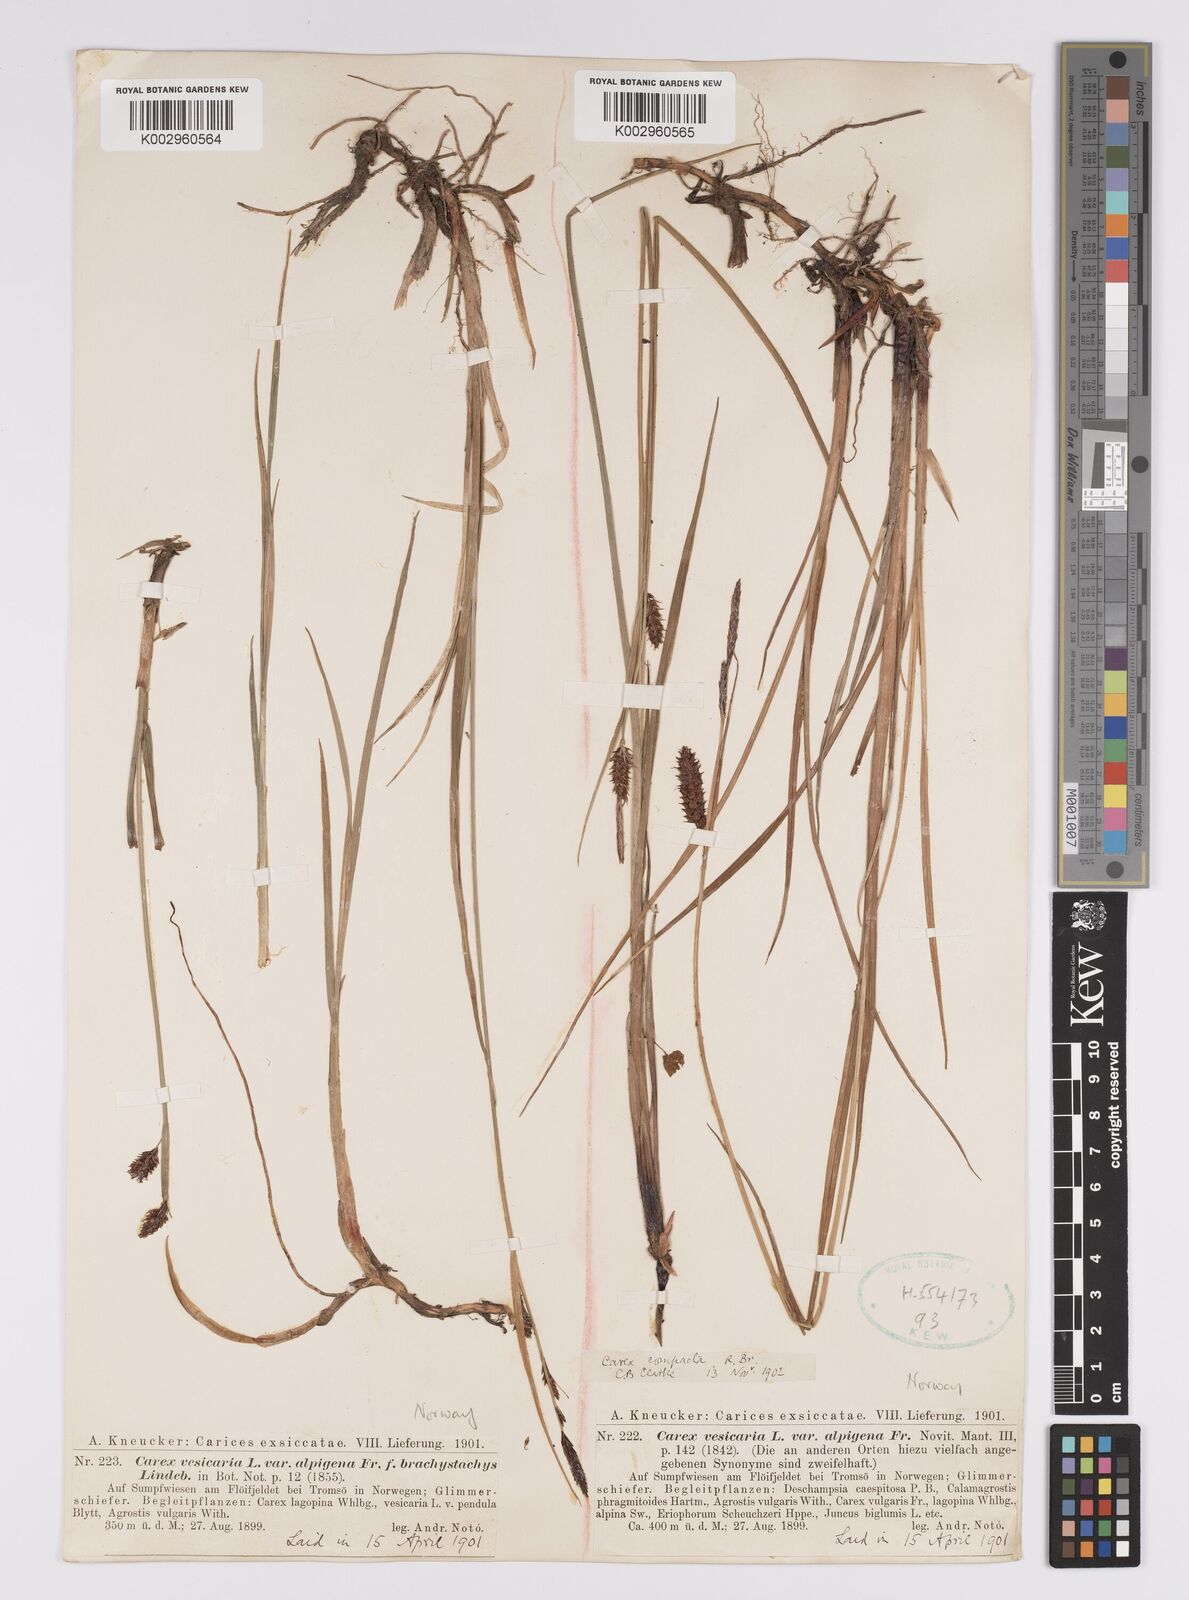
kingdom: Plantae
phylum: Tracheophyta
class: Liliopsida
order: Poales
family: Cyperaceae
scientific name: Cyperaceae
